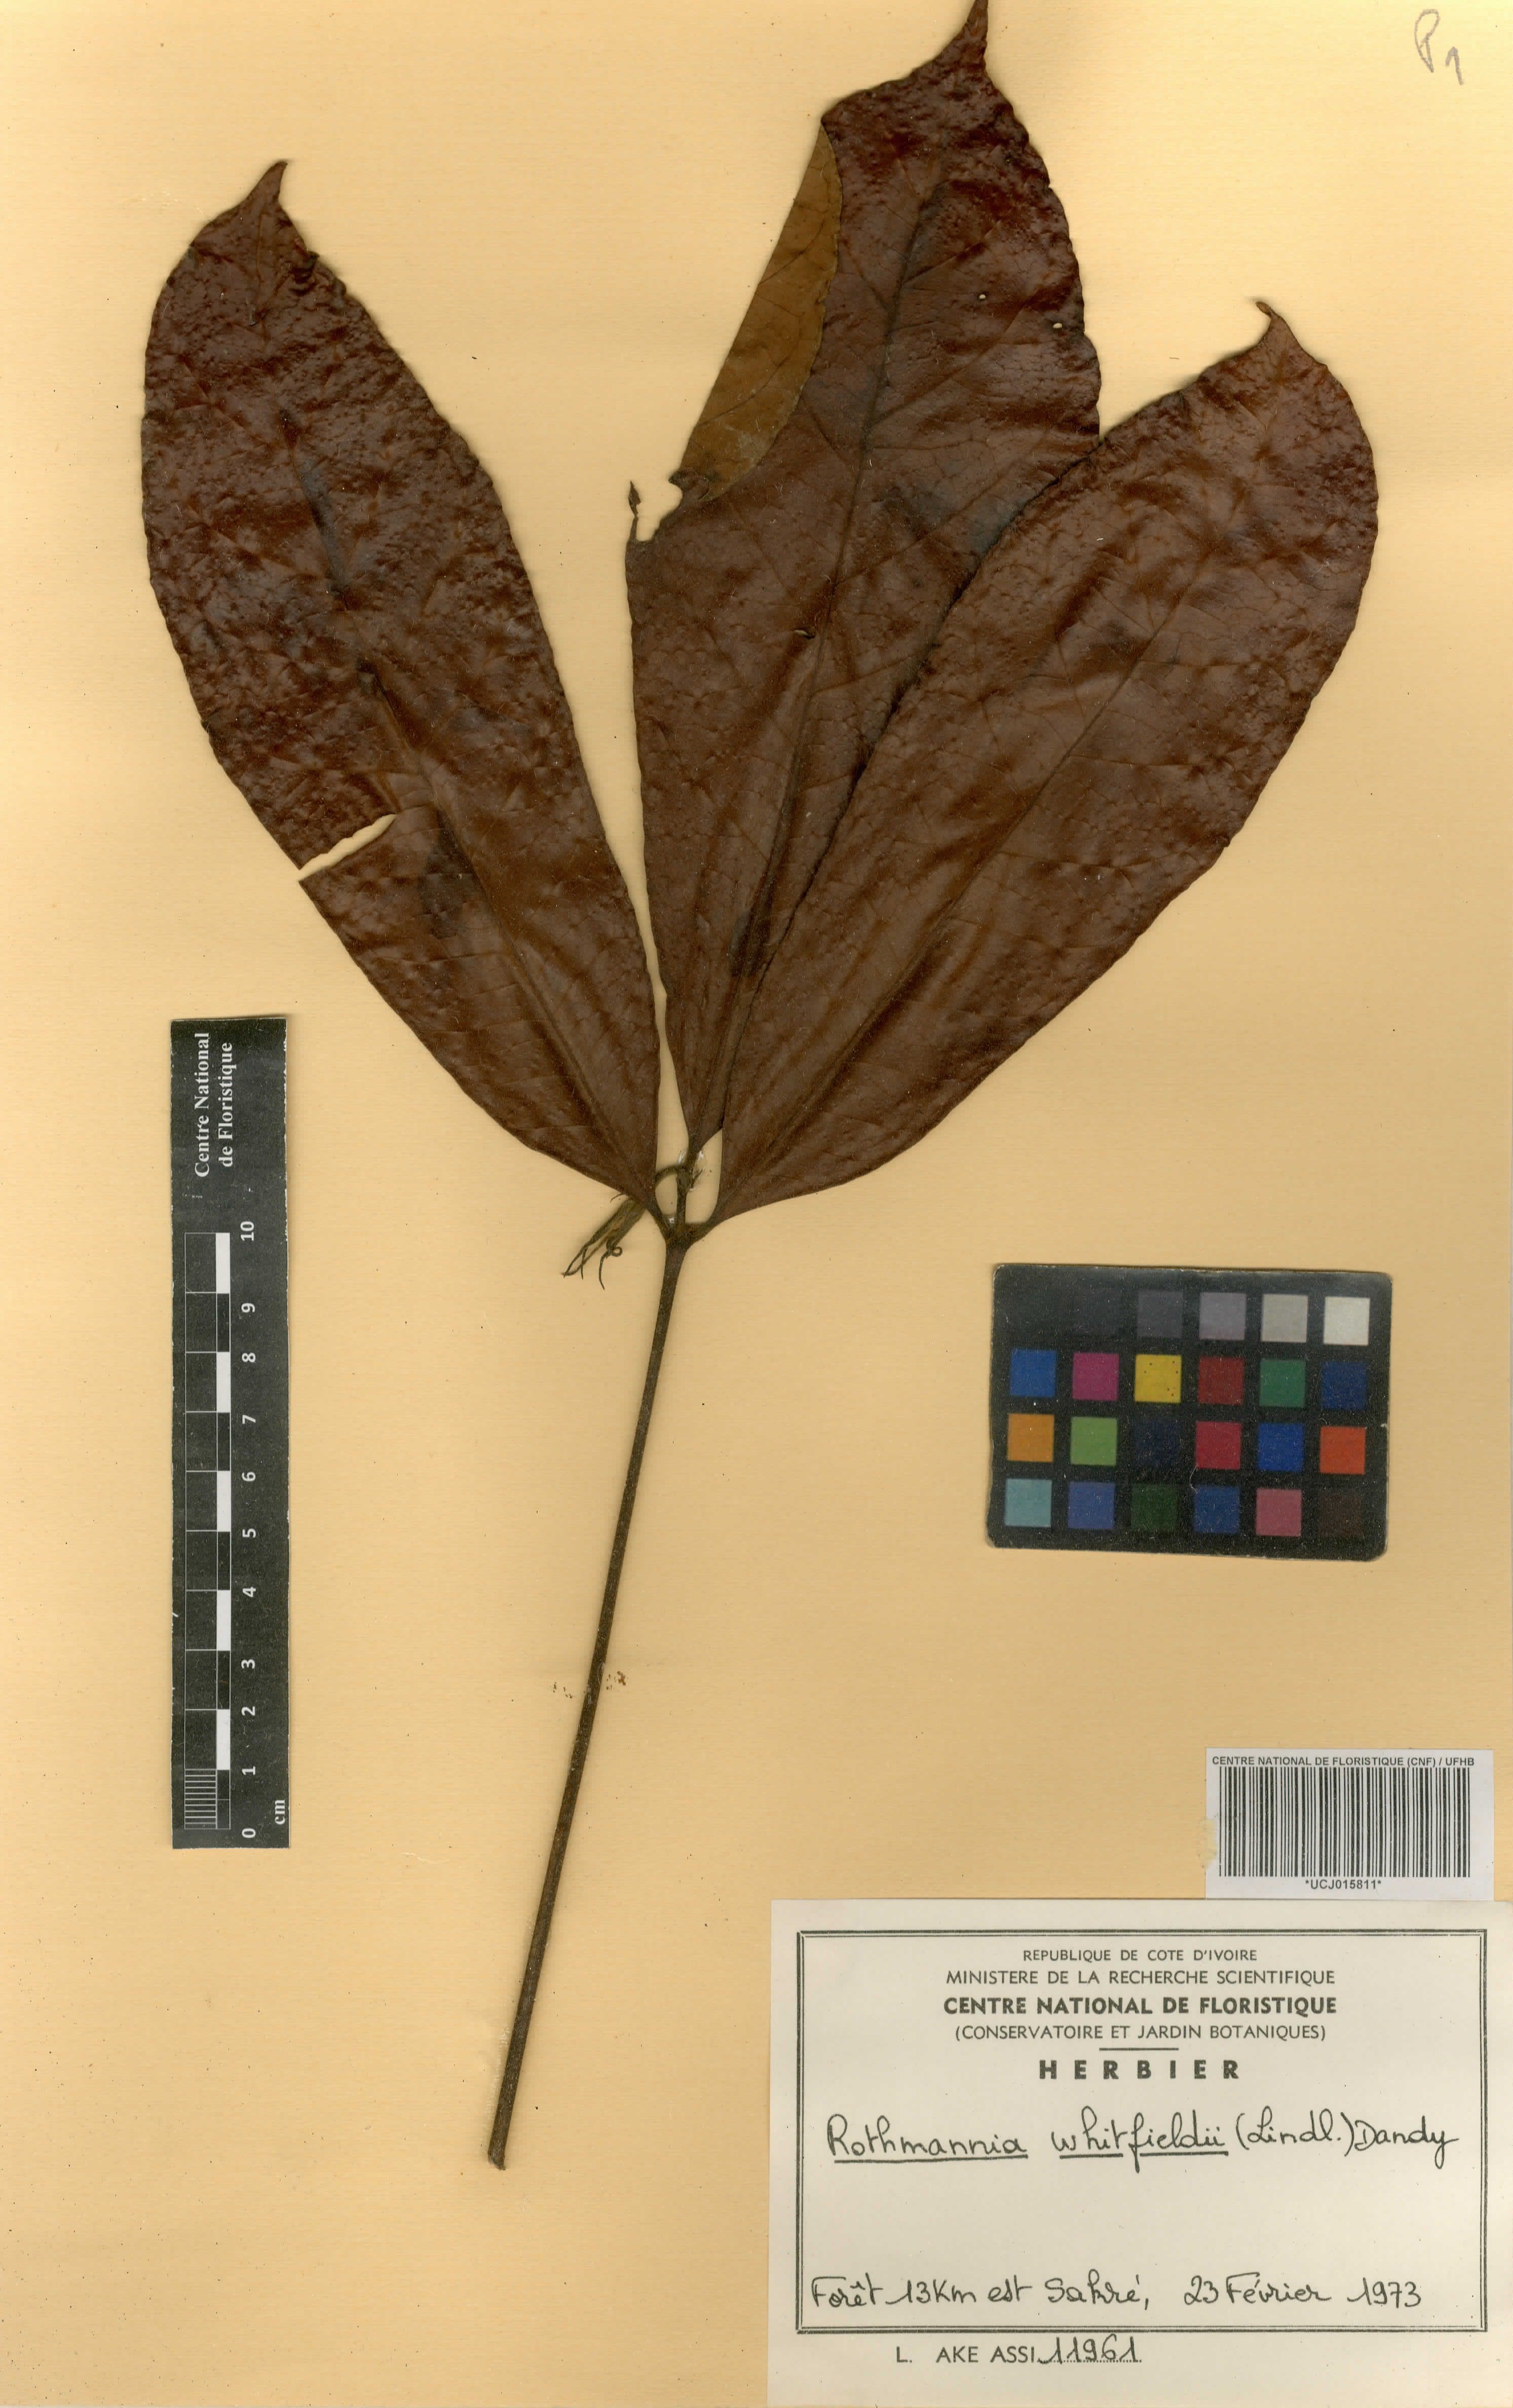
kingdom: Plantae
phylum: Tracheophyta
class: Magnoliopsida
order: Gentianales
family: Rubiaceae
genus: Rothmannia
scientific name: Rothmannia whitfieldii
